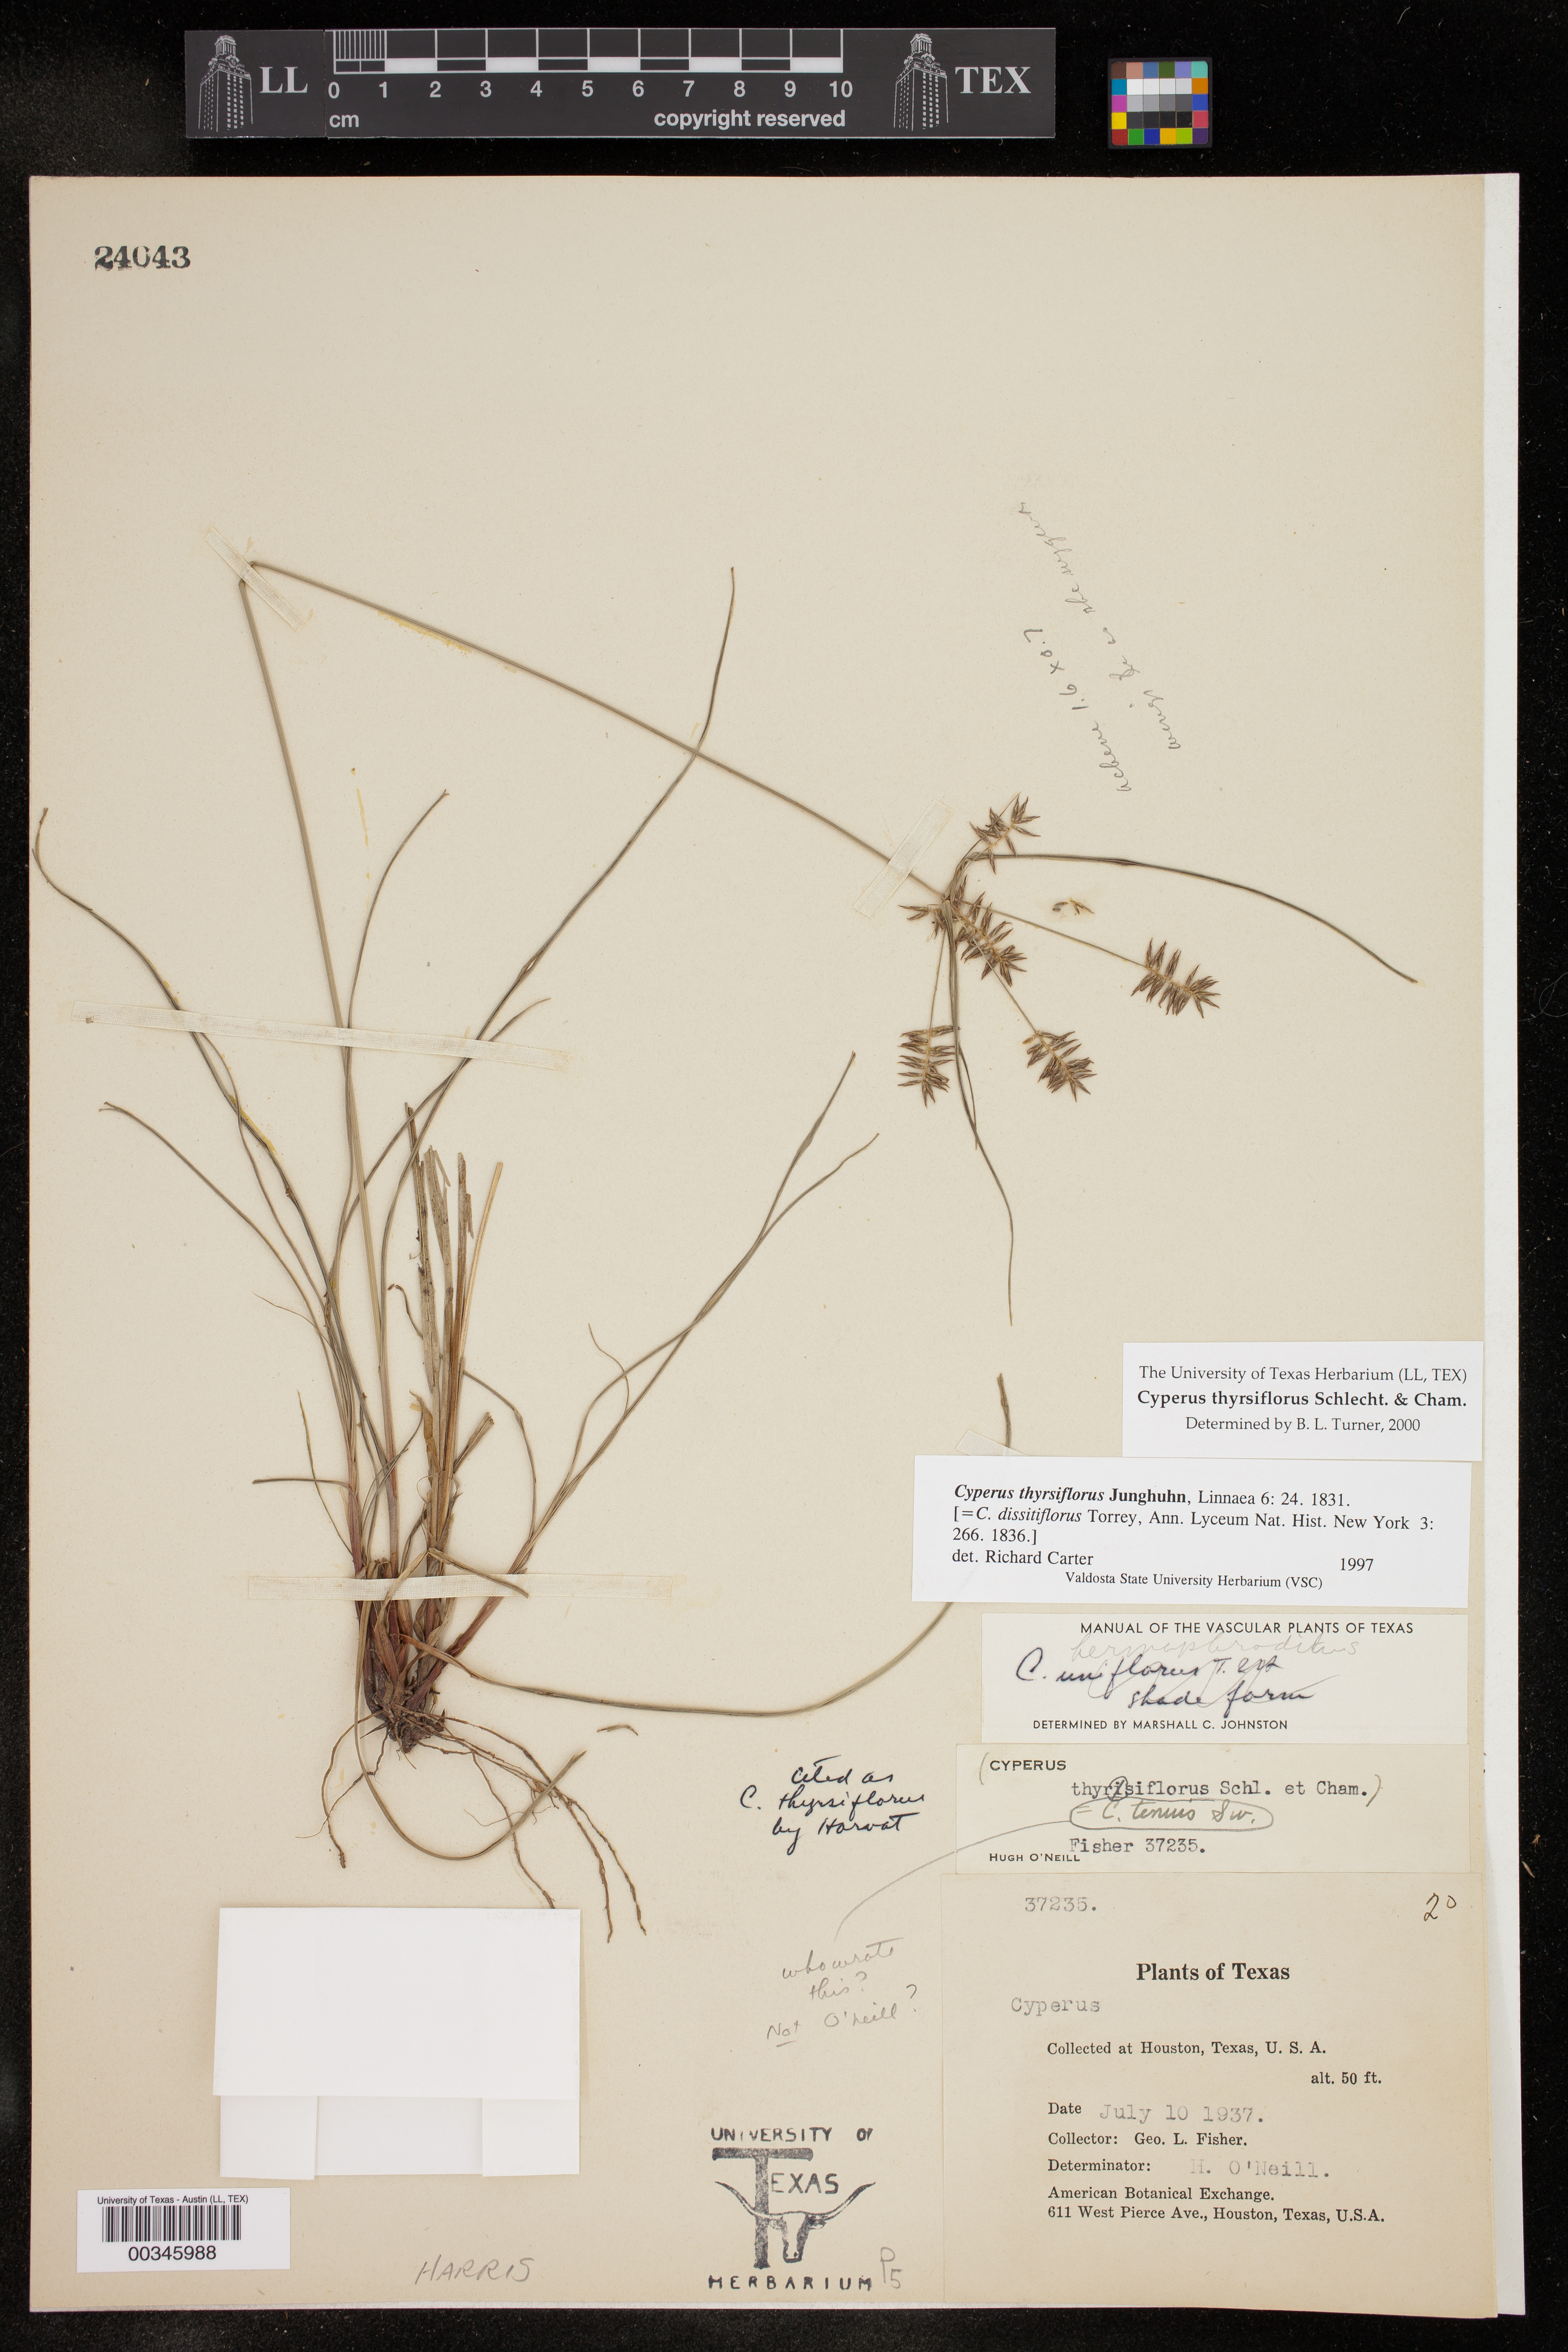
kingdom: Plantae
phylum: Tracheophyta
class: Liliopsida
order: Poales
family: Cyperaceae
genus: Cyperus
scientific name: Cyperus thyrsiflorus
